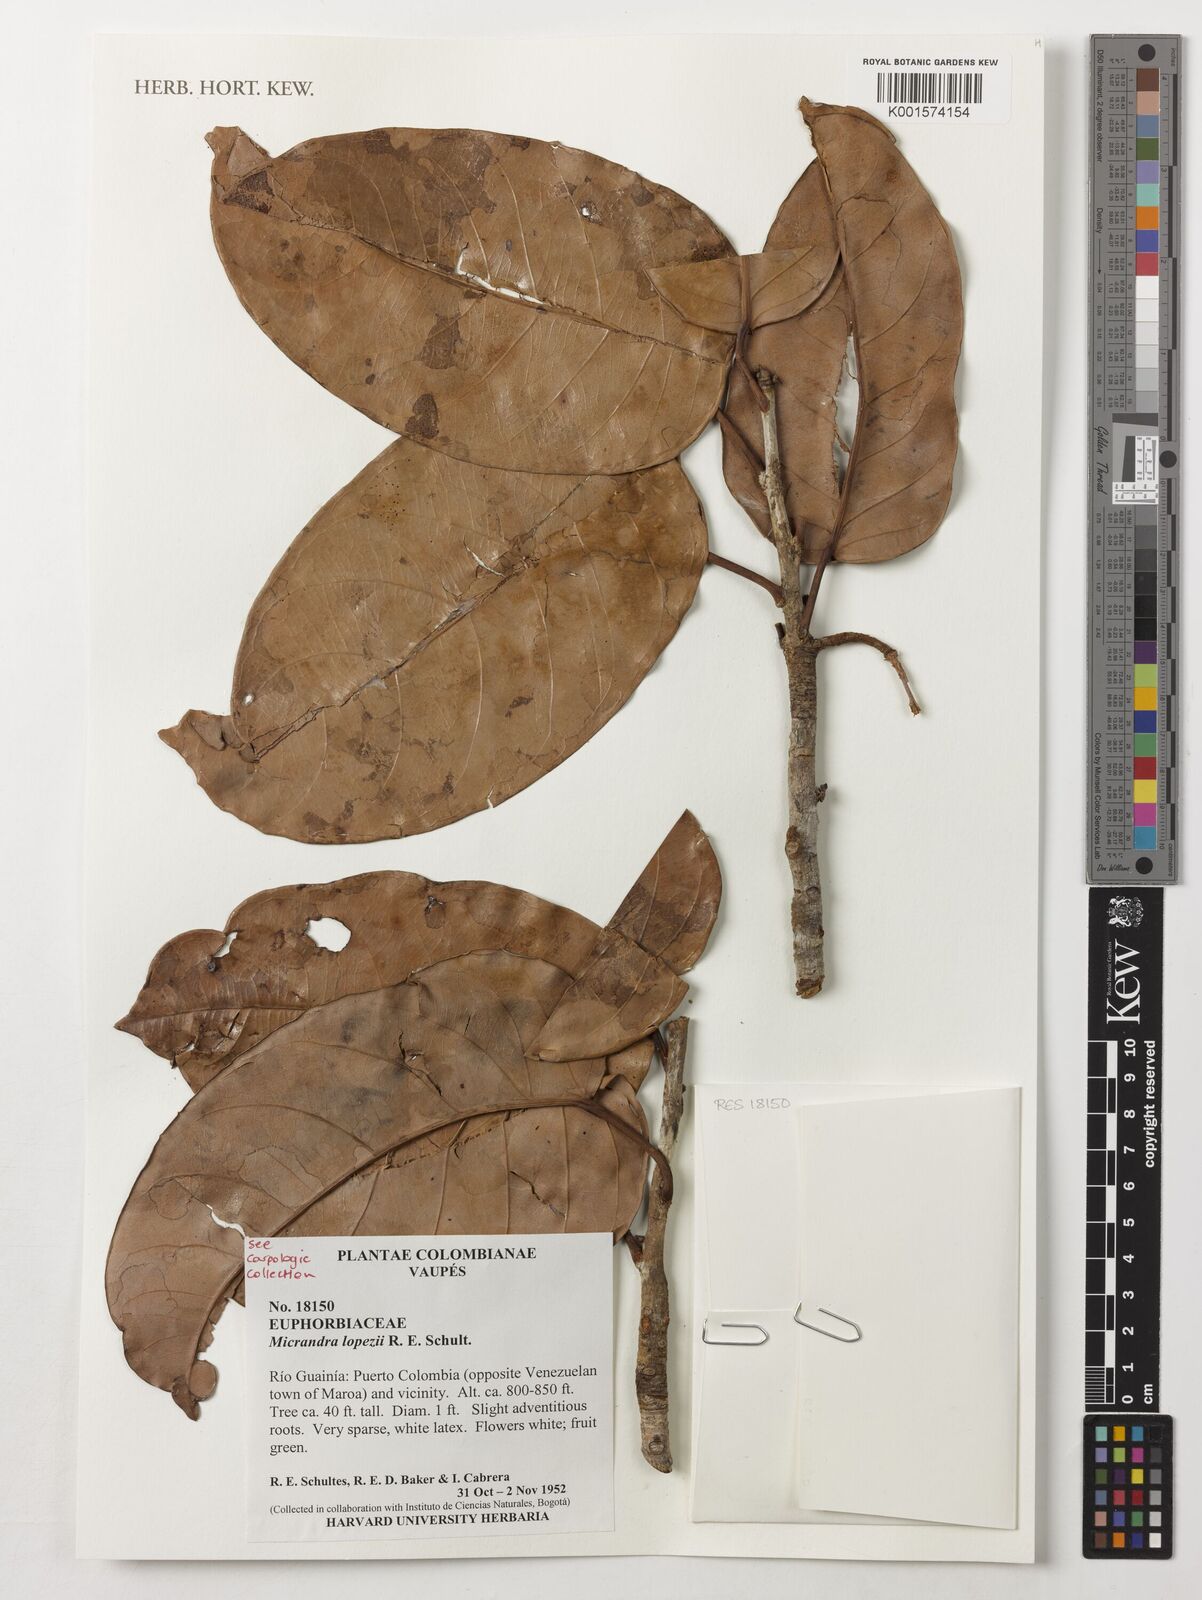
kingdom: Plantae
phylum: Tracheophyta
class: Magnoliopsida
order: Malpighiales
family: Euphorbiaceae
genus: Micrandra
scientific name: Micrandra lopezii
